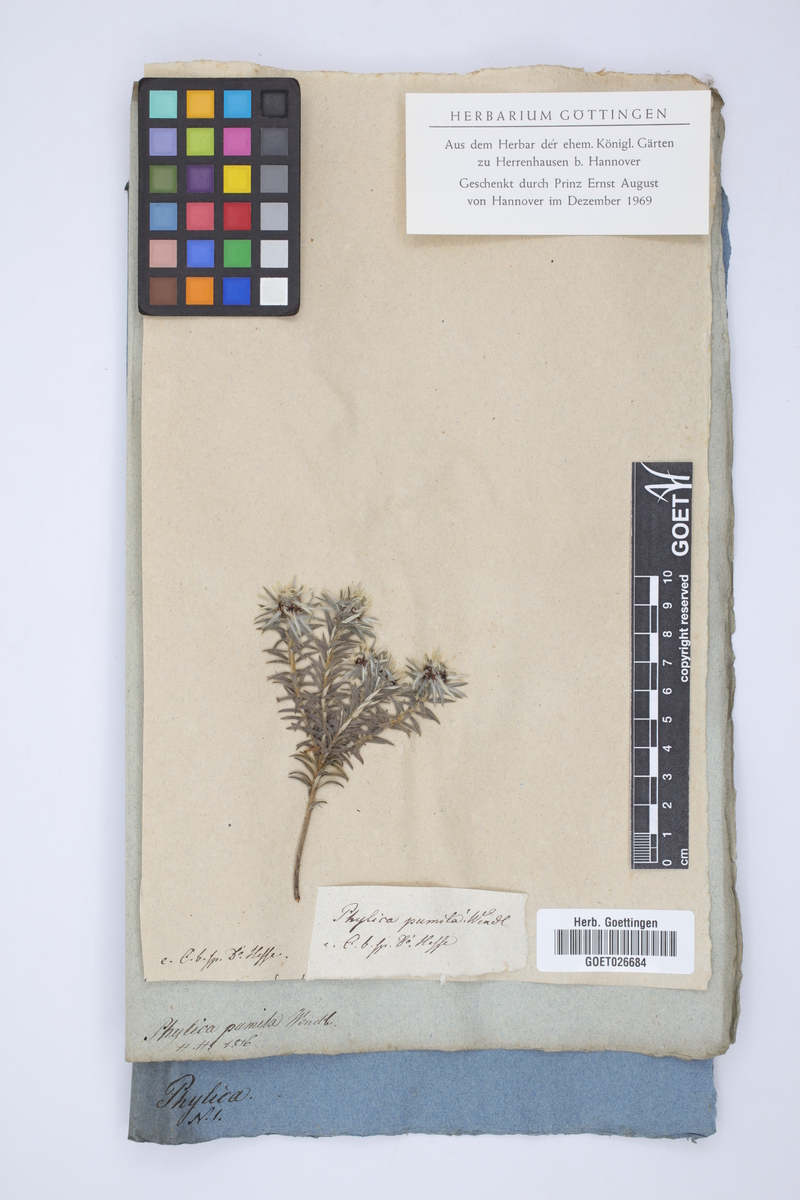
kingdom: Plantae
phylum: Tracheophyta
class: Magnoliopsida
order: Rosales
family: Rhamnaceae
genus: Phylica
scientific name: Phylica plumosa
